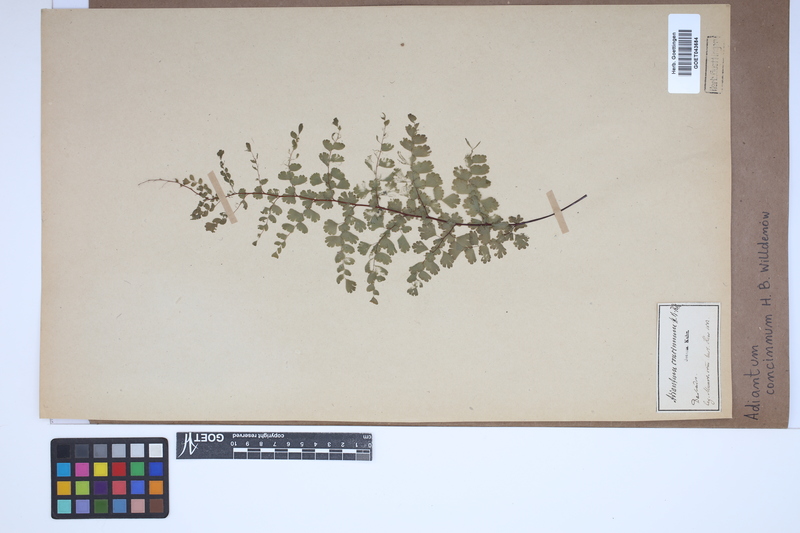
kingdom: Plantae
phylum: Tracheophyta
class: Polypodiopsida
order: Polypodiales
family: Pteridaceae
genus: Adiantum
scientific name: Adiantum concinnum
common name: Brittle maidenhair fern
